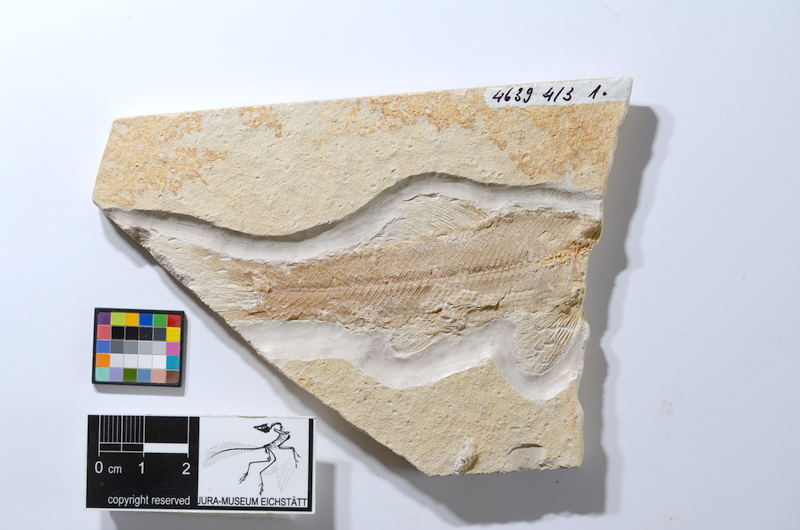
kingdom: Animalia
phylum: Chordata
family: Ophiopsiellidae
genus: Ophiopsiella
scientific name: Ophiopsiella procera
